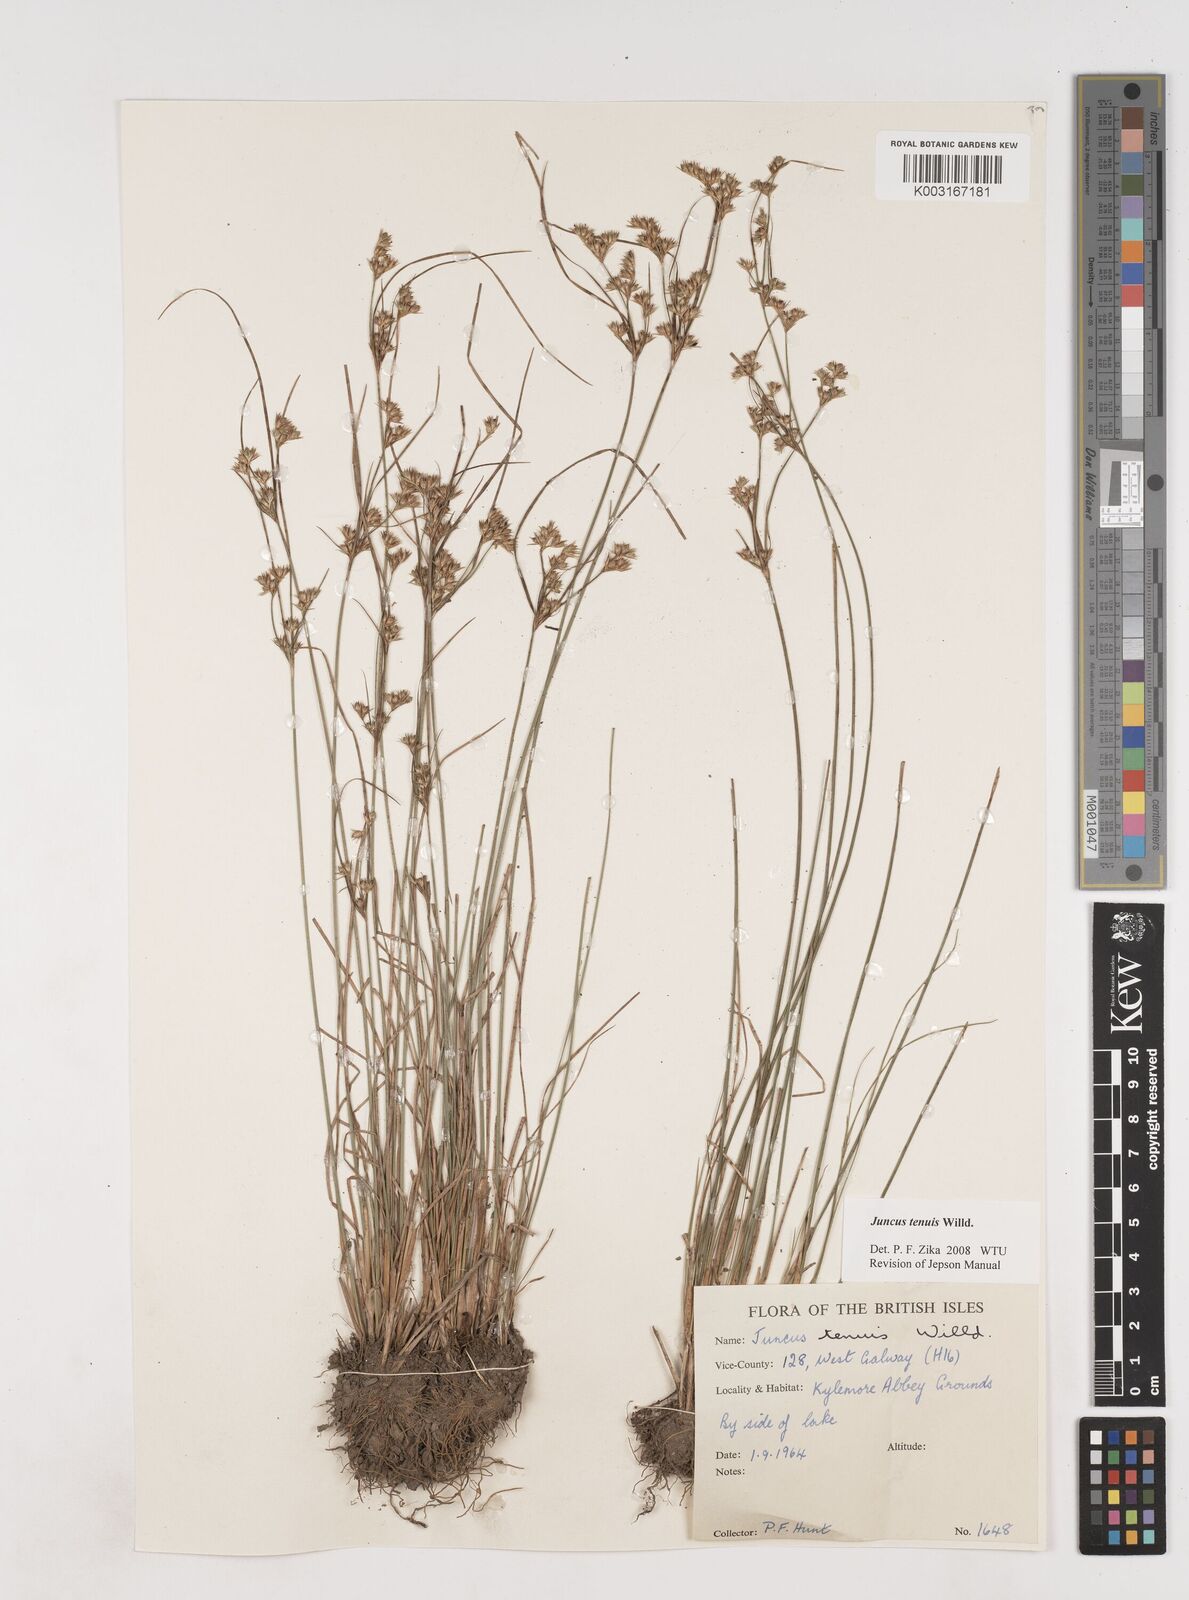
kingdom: Plantae
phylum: Tracheophyta
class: Liliopsida
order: Poales
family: Juncaceae
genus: Juncus
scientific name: Juncus tenuis
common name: Slender rush
